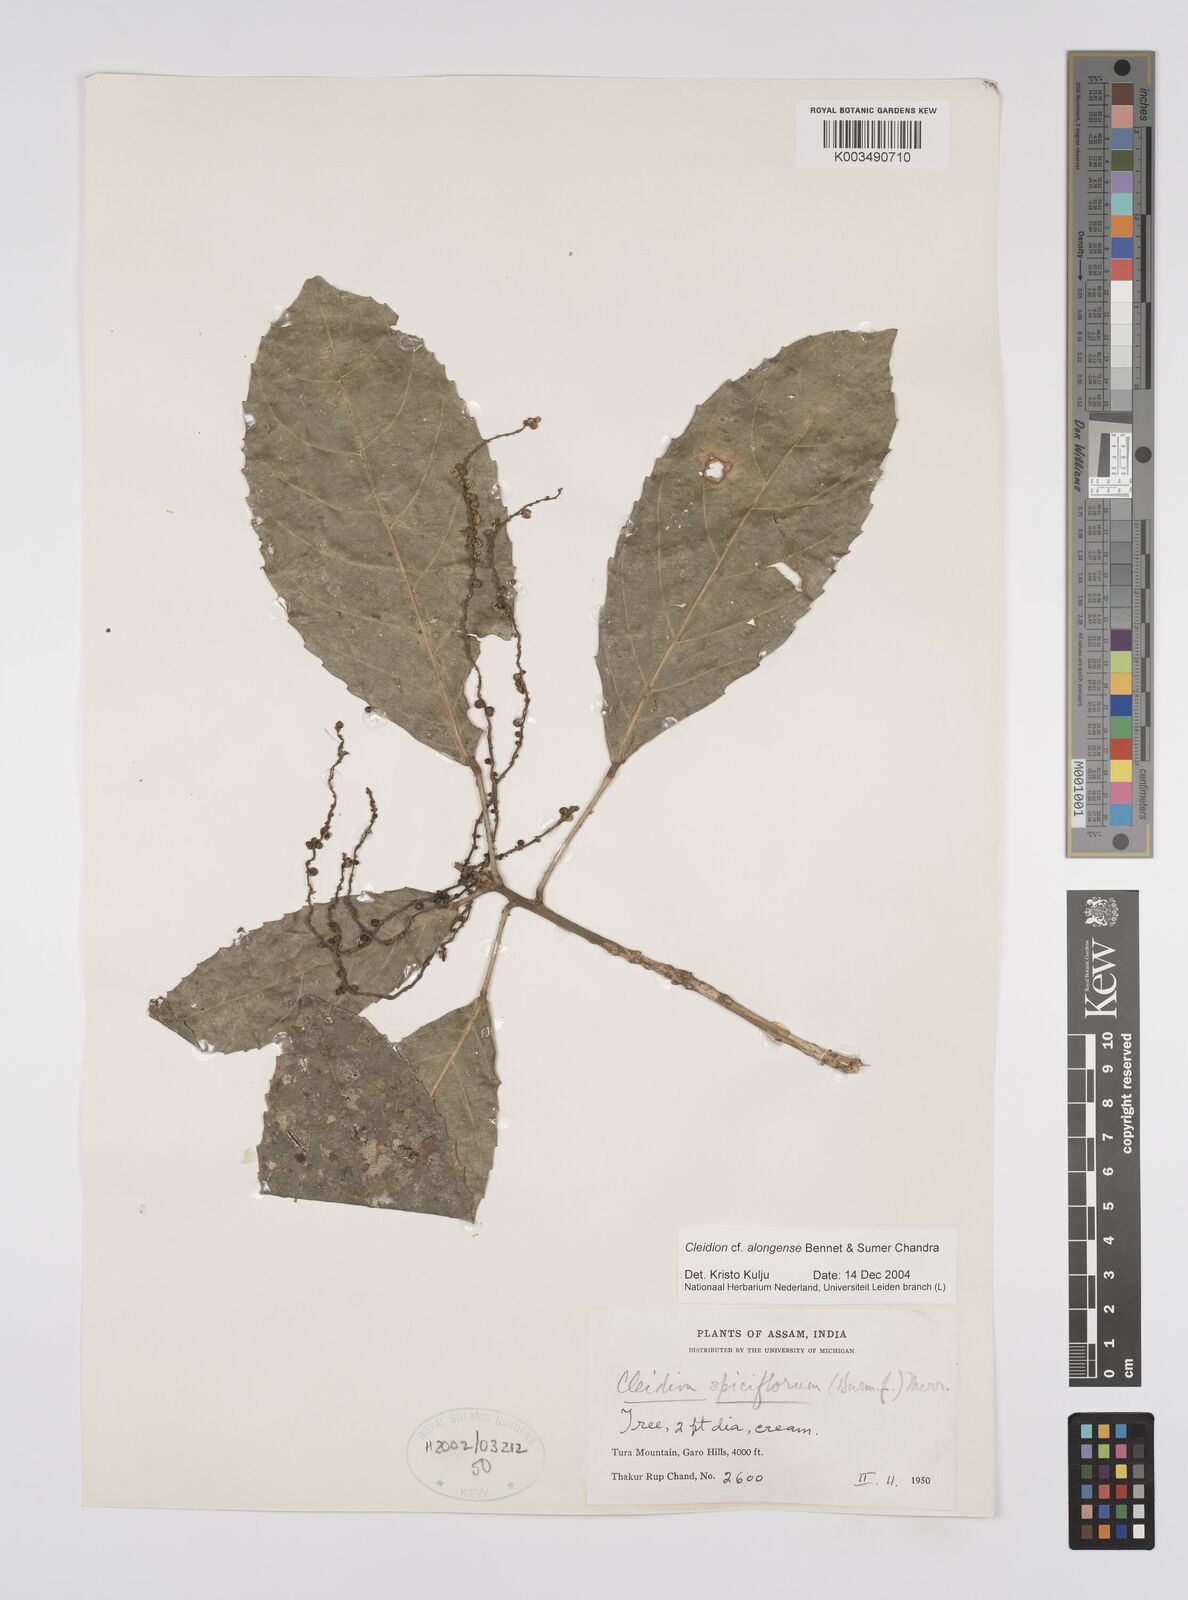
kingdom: Plantae
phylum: Tracheophyta
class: Magnoliopsida
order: Malpighiales
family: Euphorbiaceae
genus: Cleidion
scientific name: Cleidion javanicum
